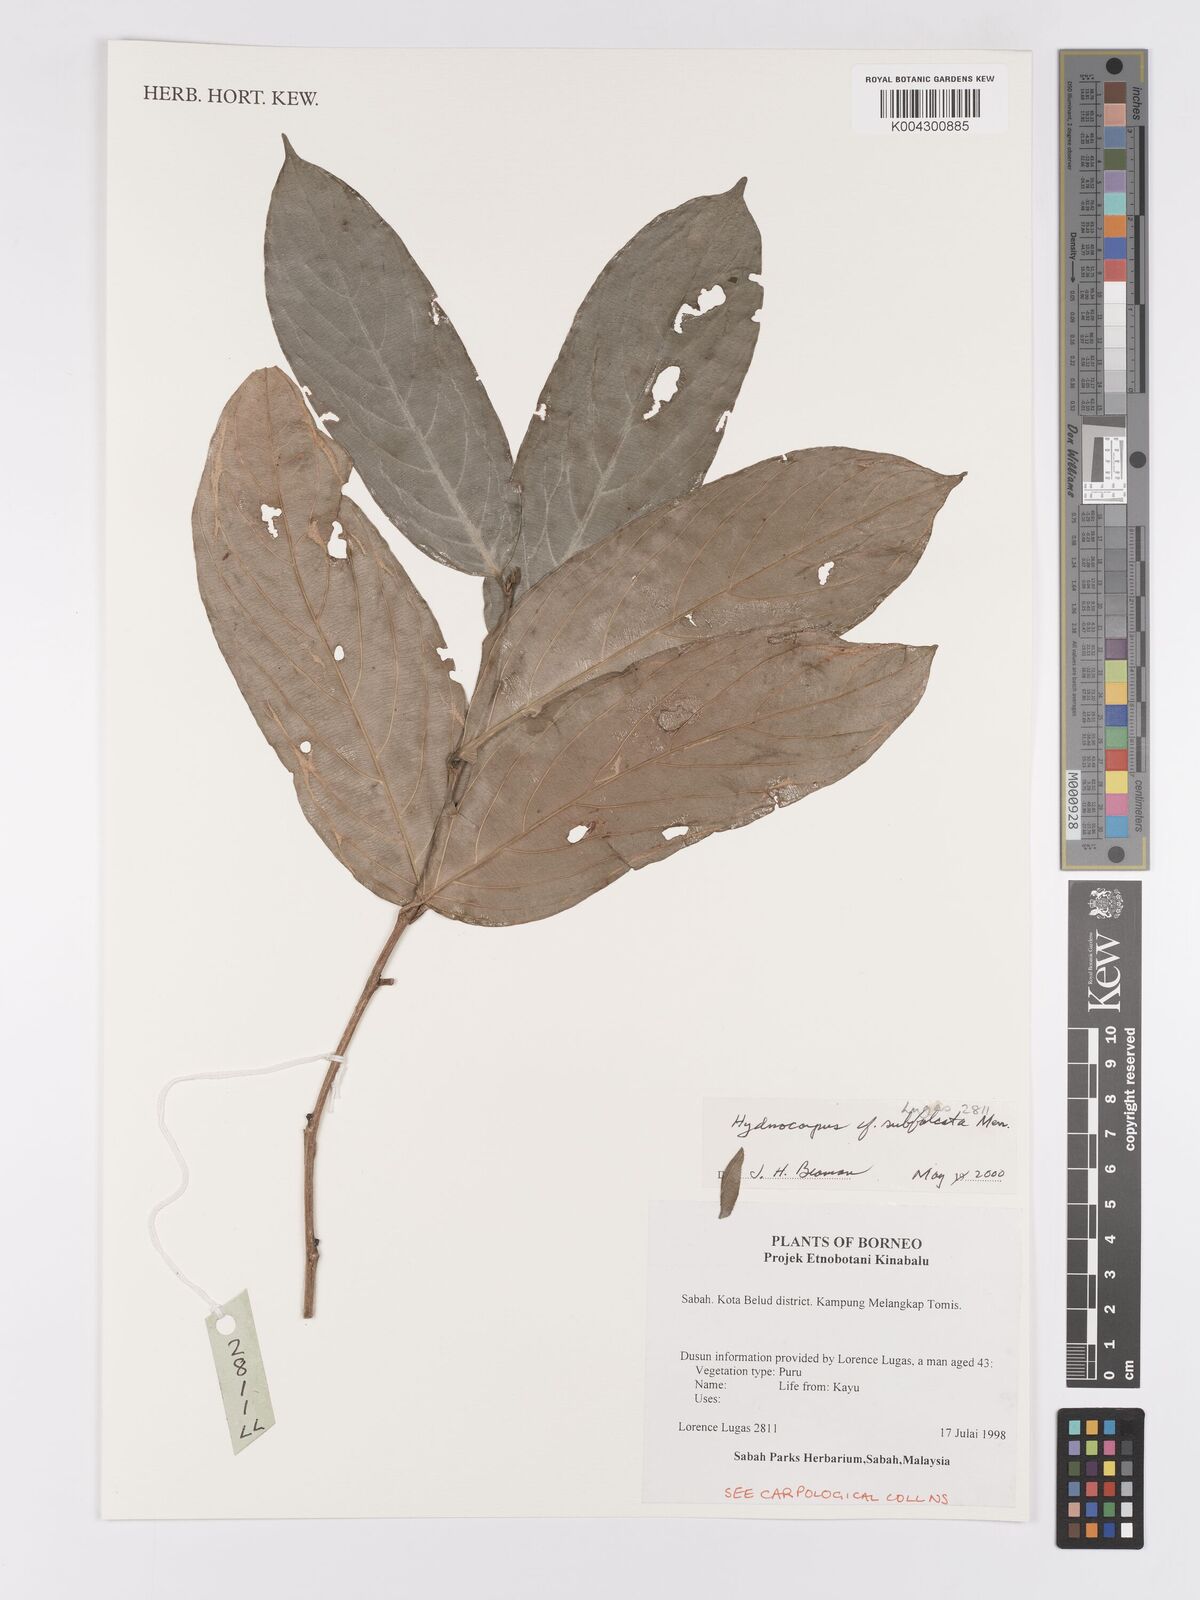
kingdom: Plantae
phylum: Tracheophyta
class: Magnoliopsida
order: Malpighiales
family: Achariaceae
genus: Hydnocarpus
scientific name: Hydnocarpus subfalcatus
